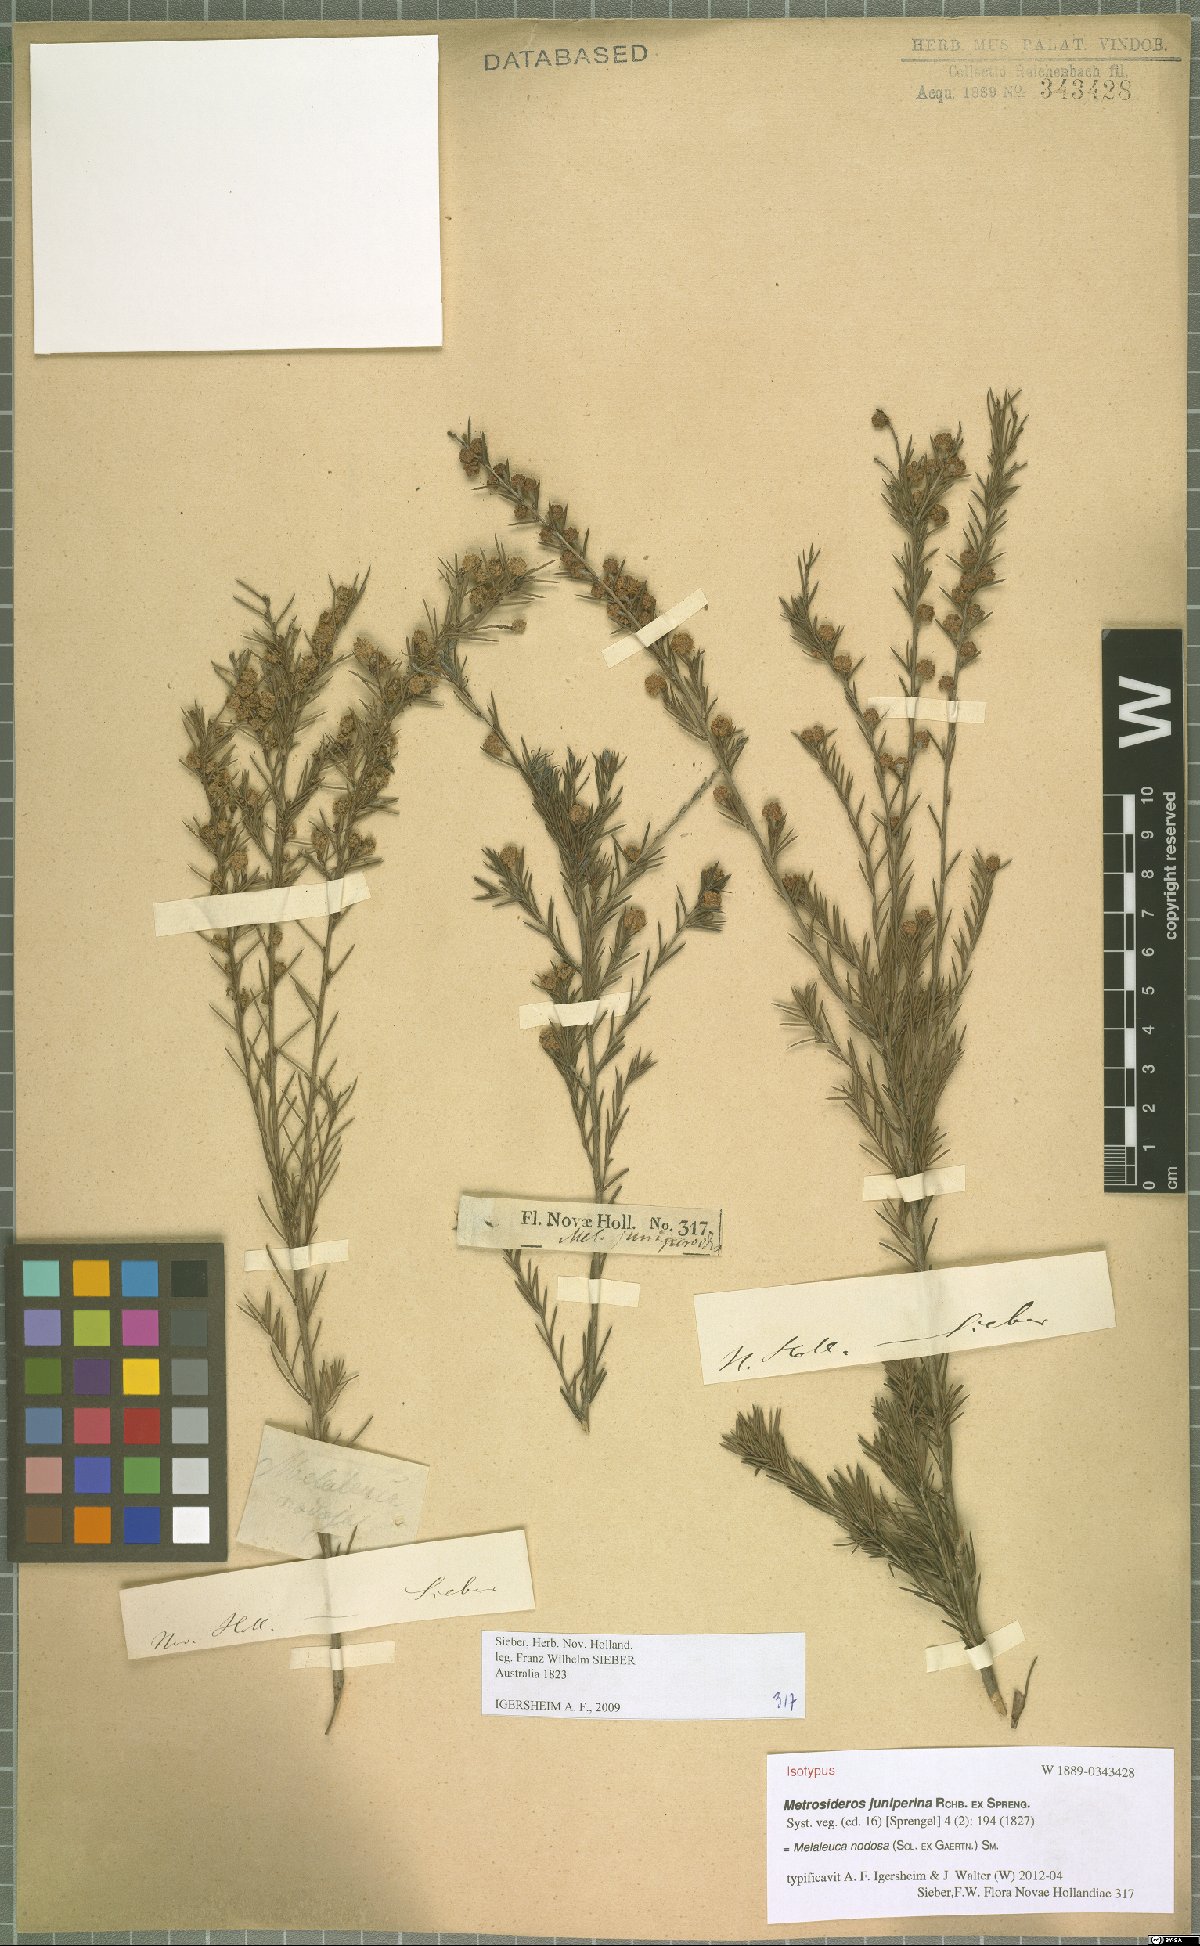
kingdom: Plantae
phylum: Tracheophyta
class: Magnoliopsida
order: Myrtales
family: Myrtaceae
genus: Melaleuca
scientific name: Melaleuca nodosa
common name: Prickly-leaf paperbark
